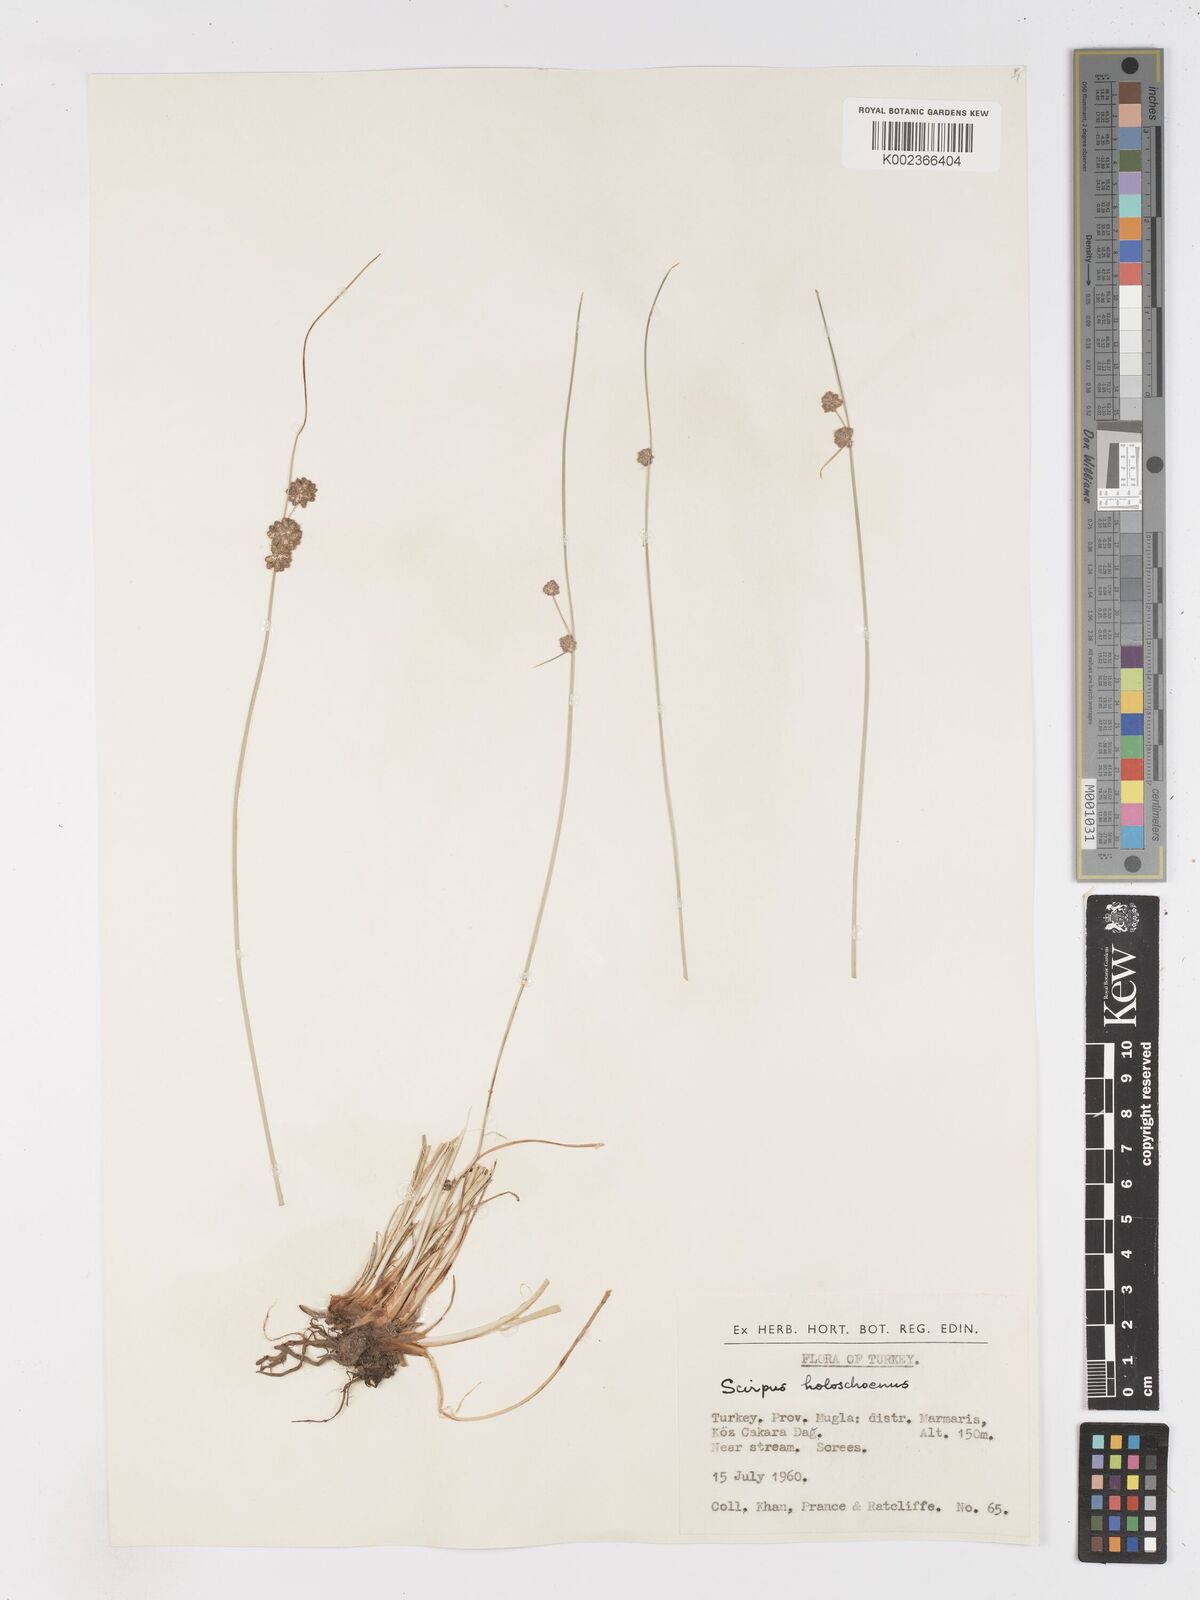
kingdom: Plantae
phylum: Tracheophyta
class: Liliopsida
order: Poales
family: Cyperaceae
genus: Scirpoides
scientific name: Scirpoides holoschoenus
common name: Round-headed club-rush
